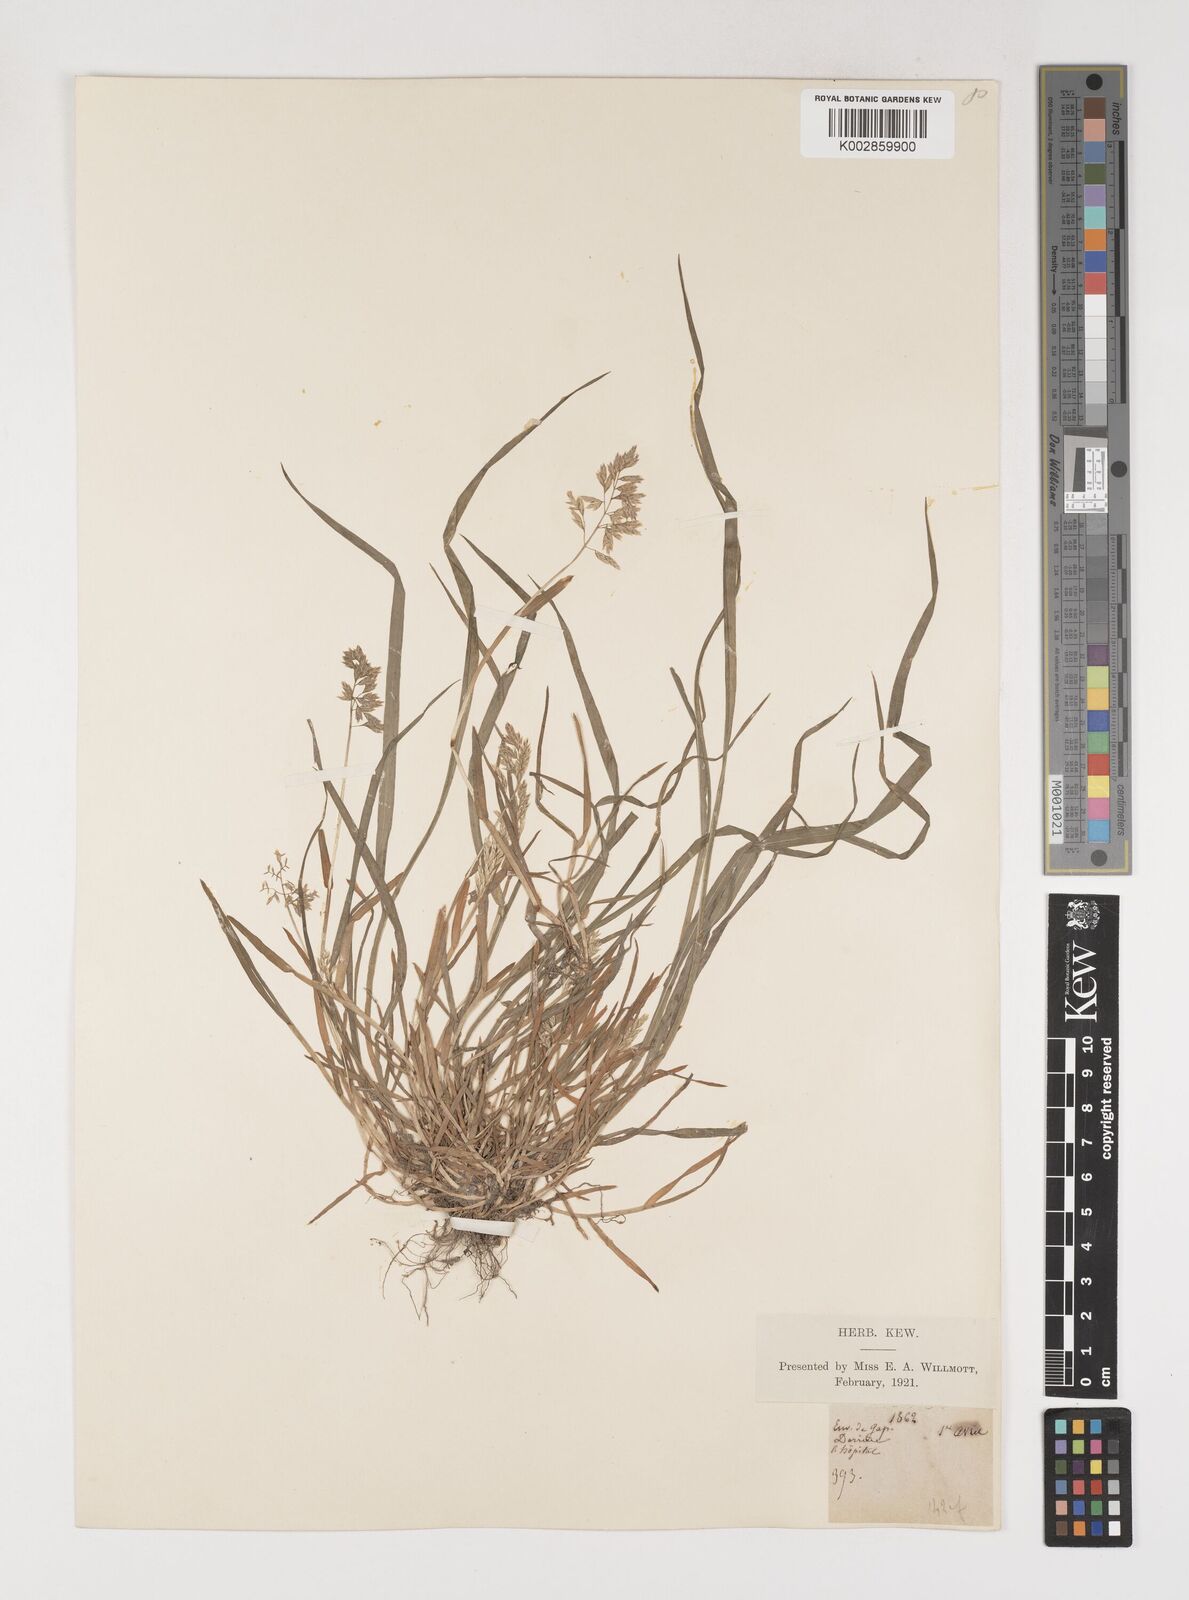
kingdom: Plantae
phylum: Tracheophyta
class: Liliopsida
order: Poales
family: Poaceae
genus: Poa
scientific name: Poa annua
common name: Annual bluegrass
